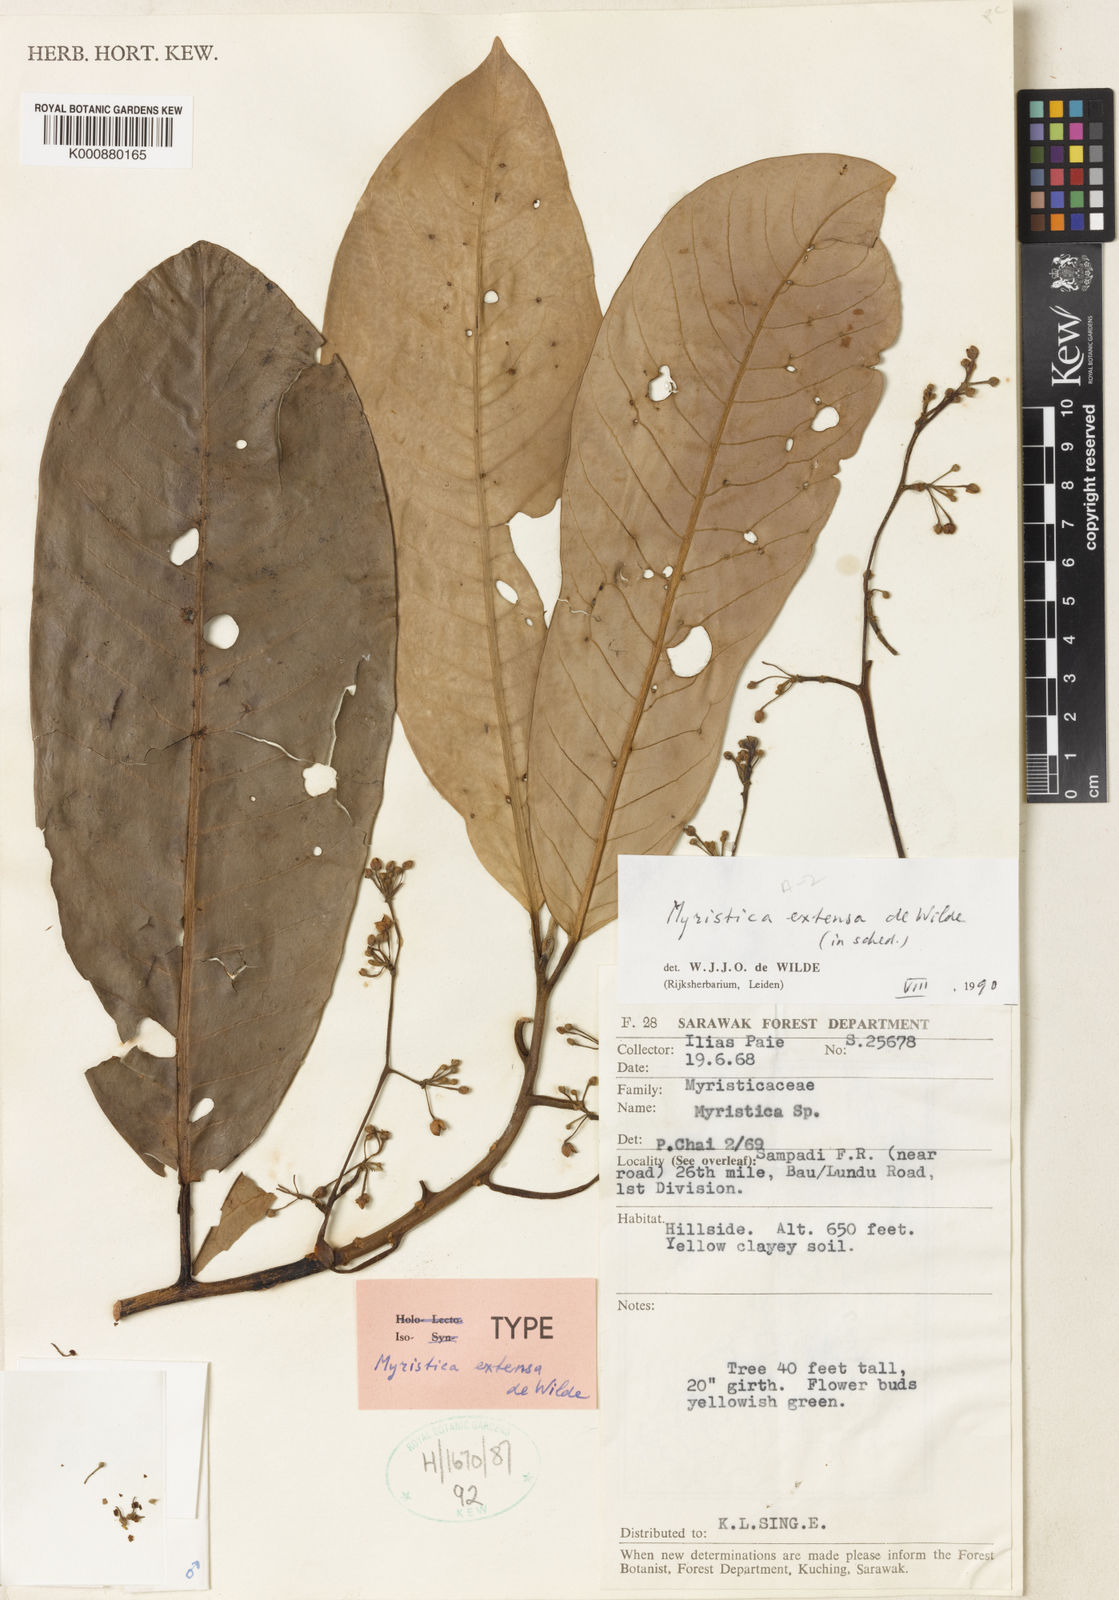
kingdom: Plantae
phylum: Tracheophyta
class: Magnoliopsida
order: Magnoliales
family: Myristicaceae
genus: Myristica
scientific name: Myristica extensa
